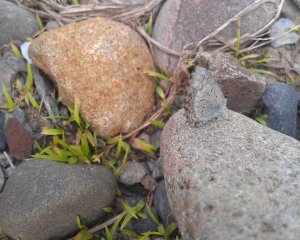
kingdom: Animalia
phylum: Arthropoda
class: Insecta
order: Lepidoptera
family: Lycaenidae
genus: Celastrina
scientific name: Celastrina lucia
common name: Northern Spring Azure
